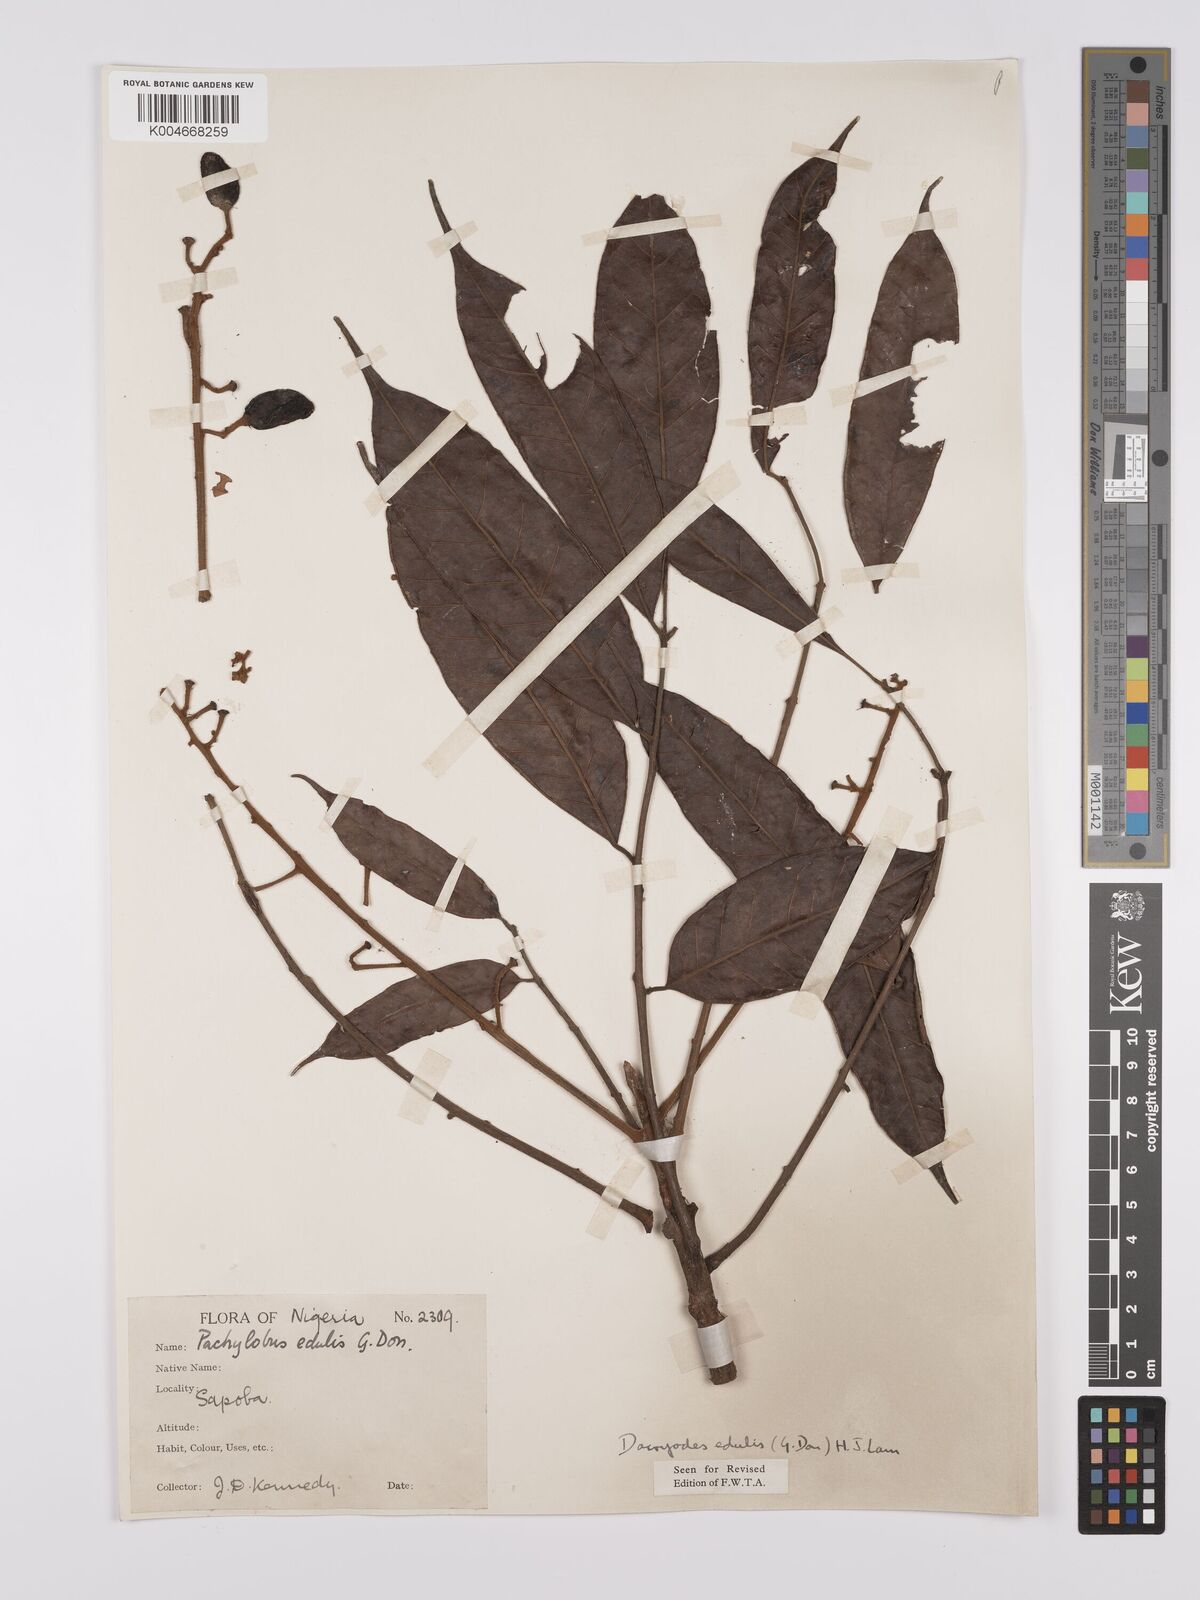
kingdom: Plantae
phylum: Tracheophyta
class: Magnoliopsida
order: Sapindales
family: Burseraceae
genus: Pachylobus
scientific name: Pachylobus edulis
